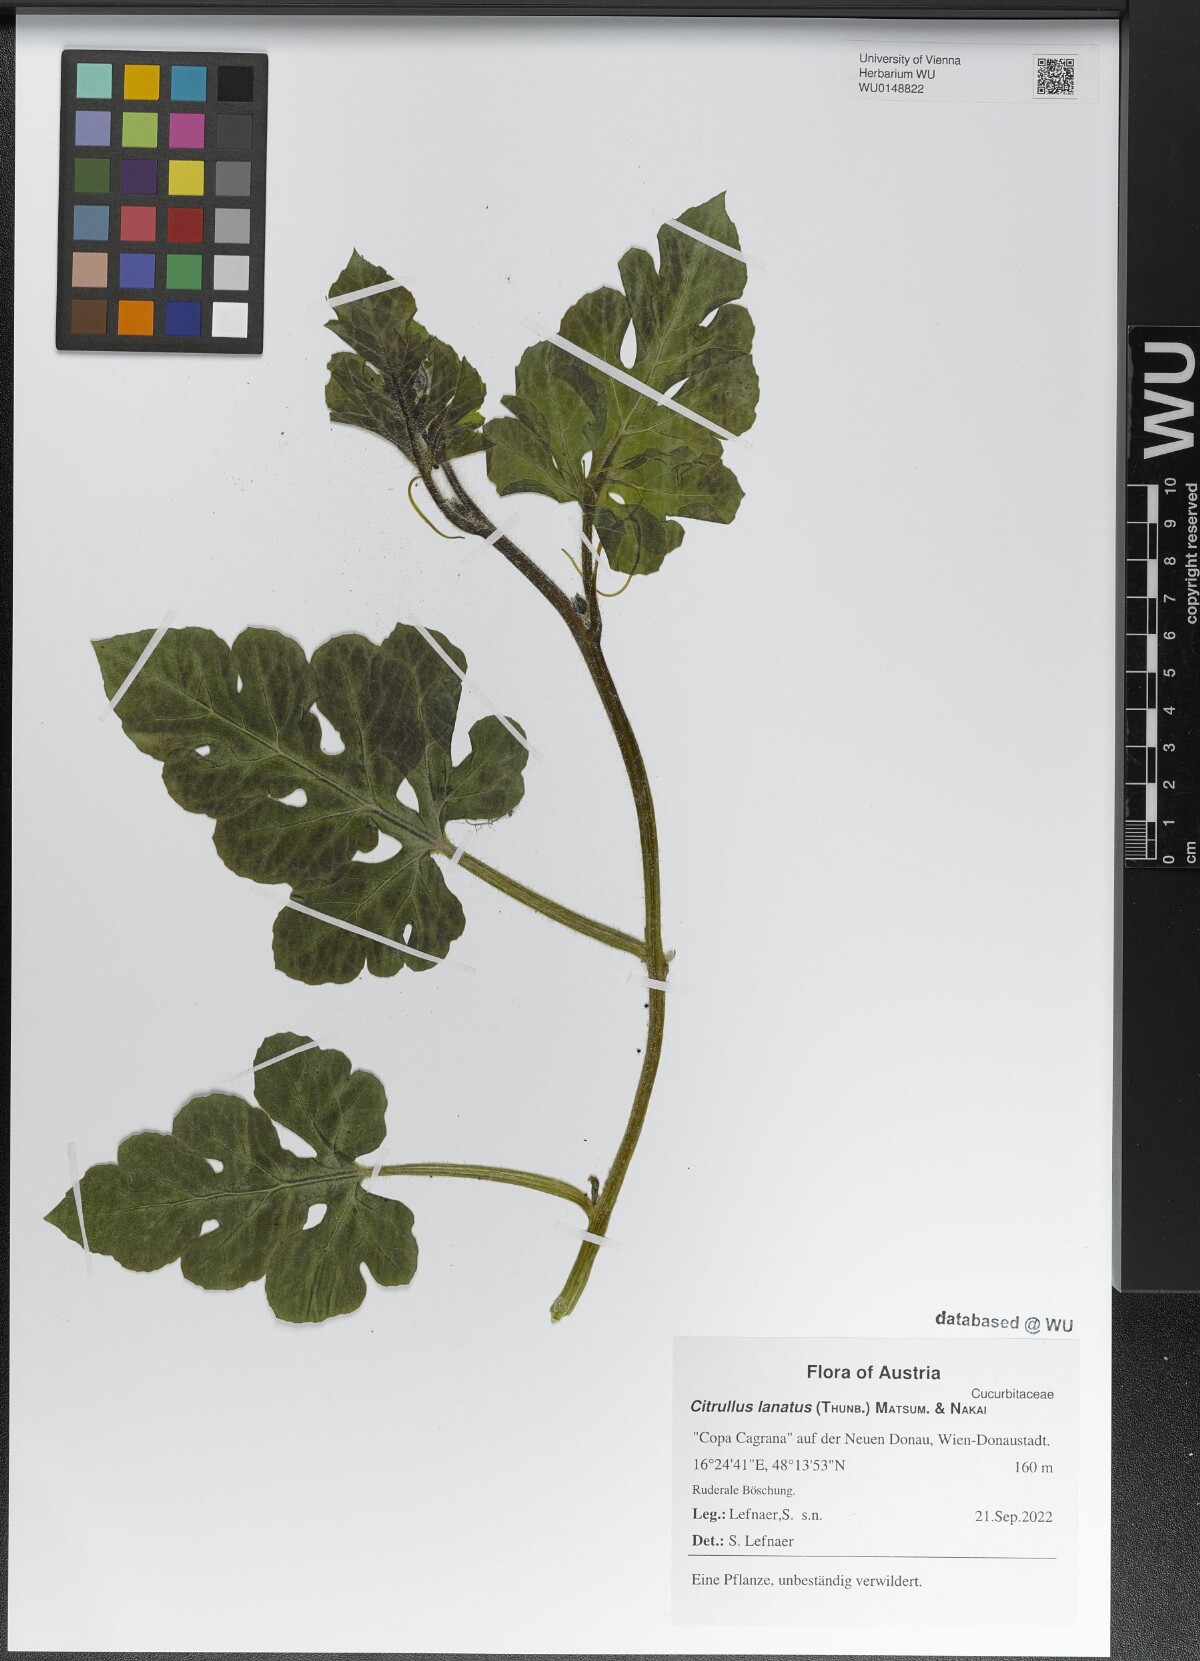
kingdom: Plantae
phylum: Tracheophyta
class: Magnoliopsida
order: Cucurbitales
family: Cucurbitaceae
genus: Citrullus
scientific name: Citrullus lanatus
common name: Watermelon
